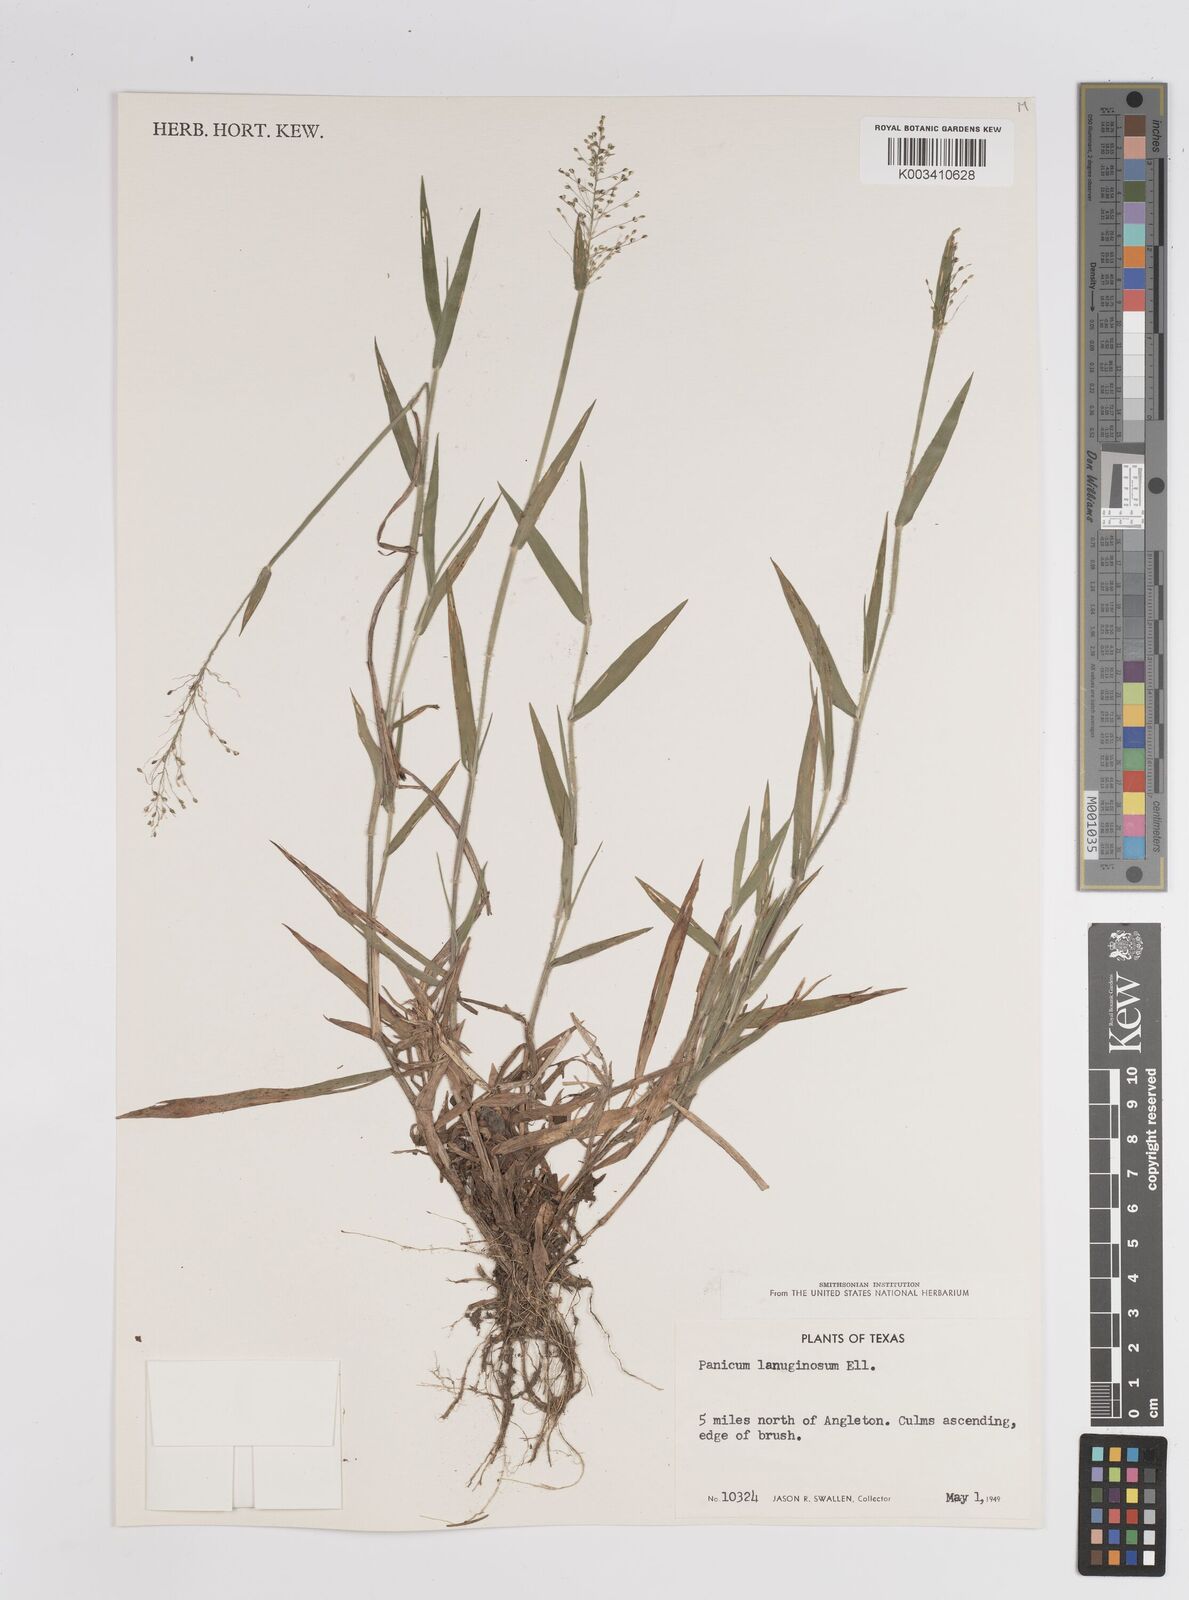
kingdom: Plantae
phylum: Tracheophyta
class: Liliopsida
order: Poales
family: Poaceae
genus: Dichanthelium
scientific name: Dichanthelium lanuginosum
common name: Woolly panicgrass
